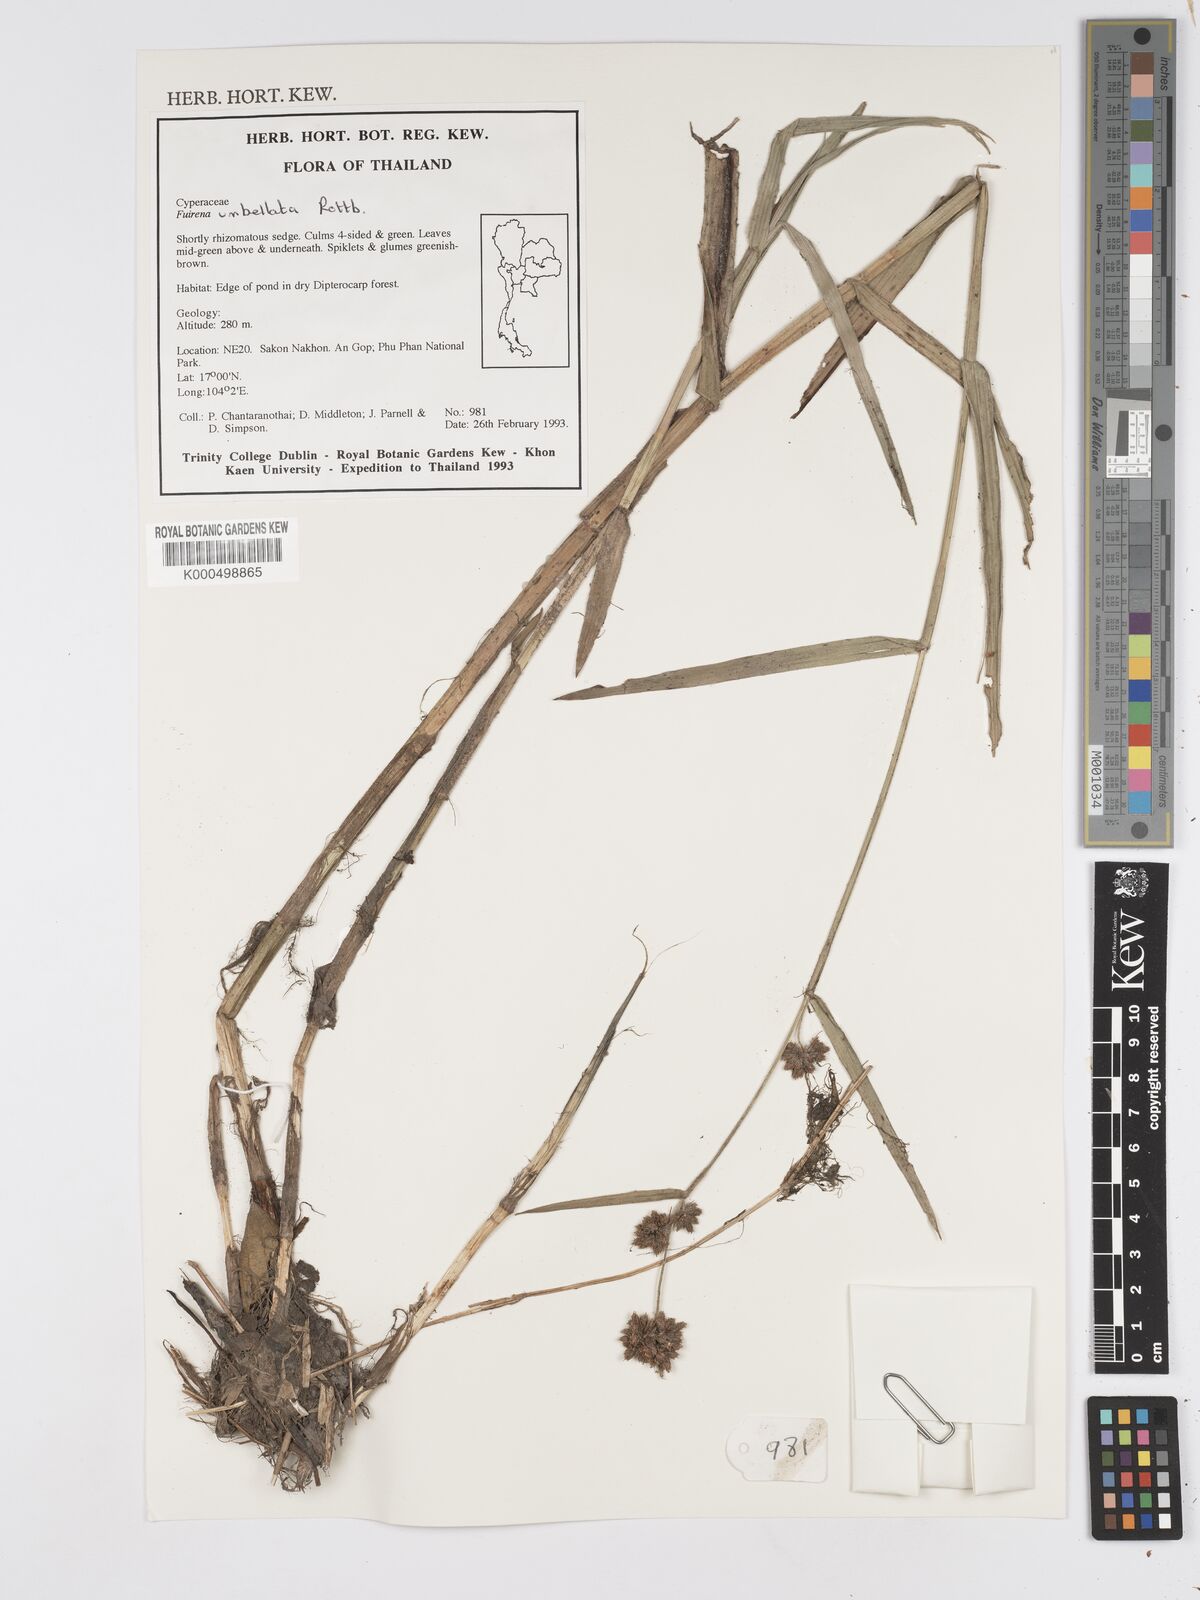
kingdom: Plantae
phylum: Tracheophyta
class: Liliopsida
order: Poales
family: Cyperaceae
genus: Fuirena
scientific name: Fuirena umbellata
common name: Yefen
